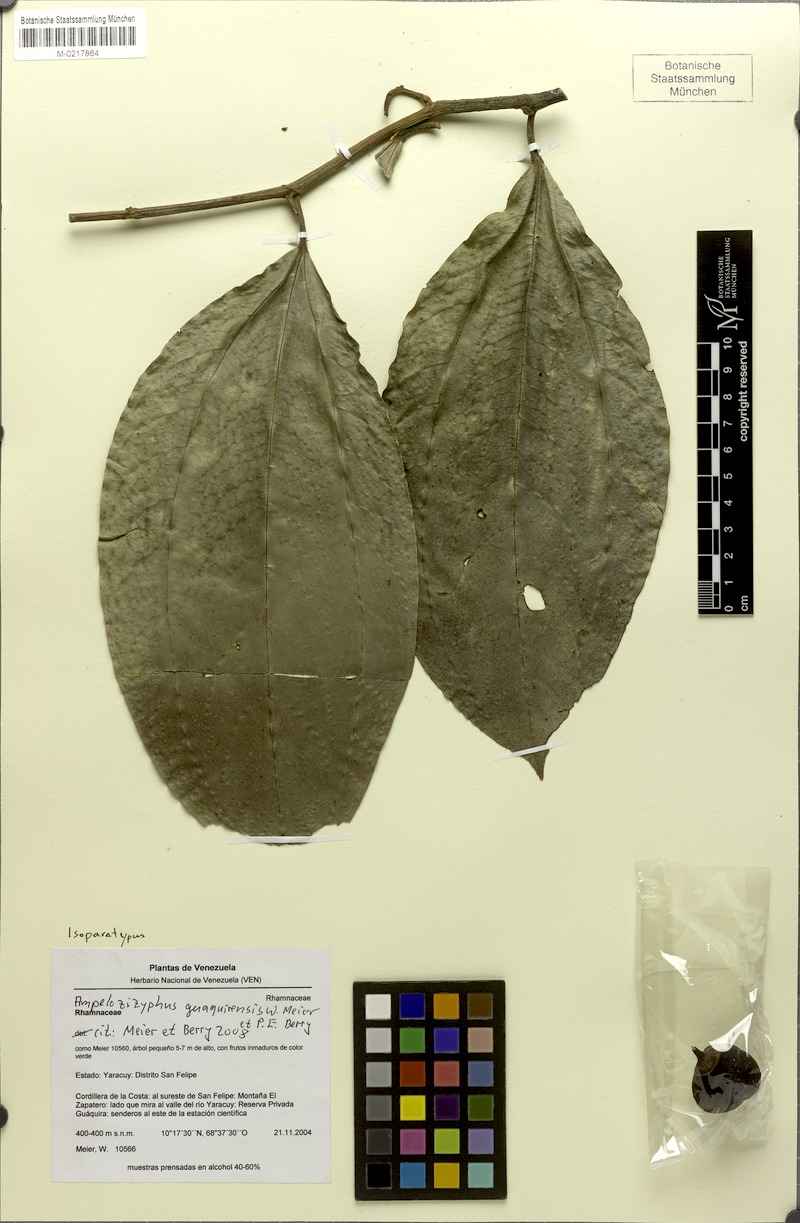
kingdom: Plantae
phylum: Tracheophyta
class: Magnoliopsida
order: Rosales
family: Rhamnaceae
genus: Ampelozizyphus
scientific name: Ampelozizyphus guaquirensis
